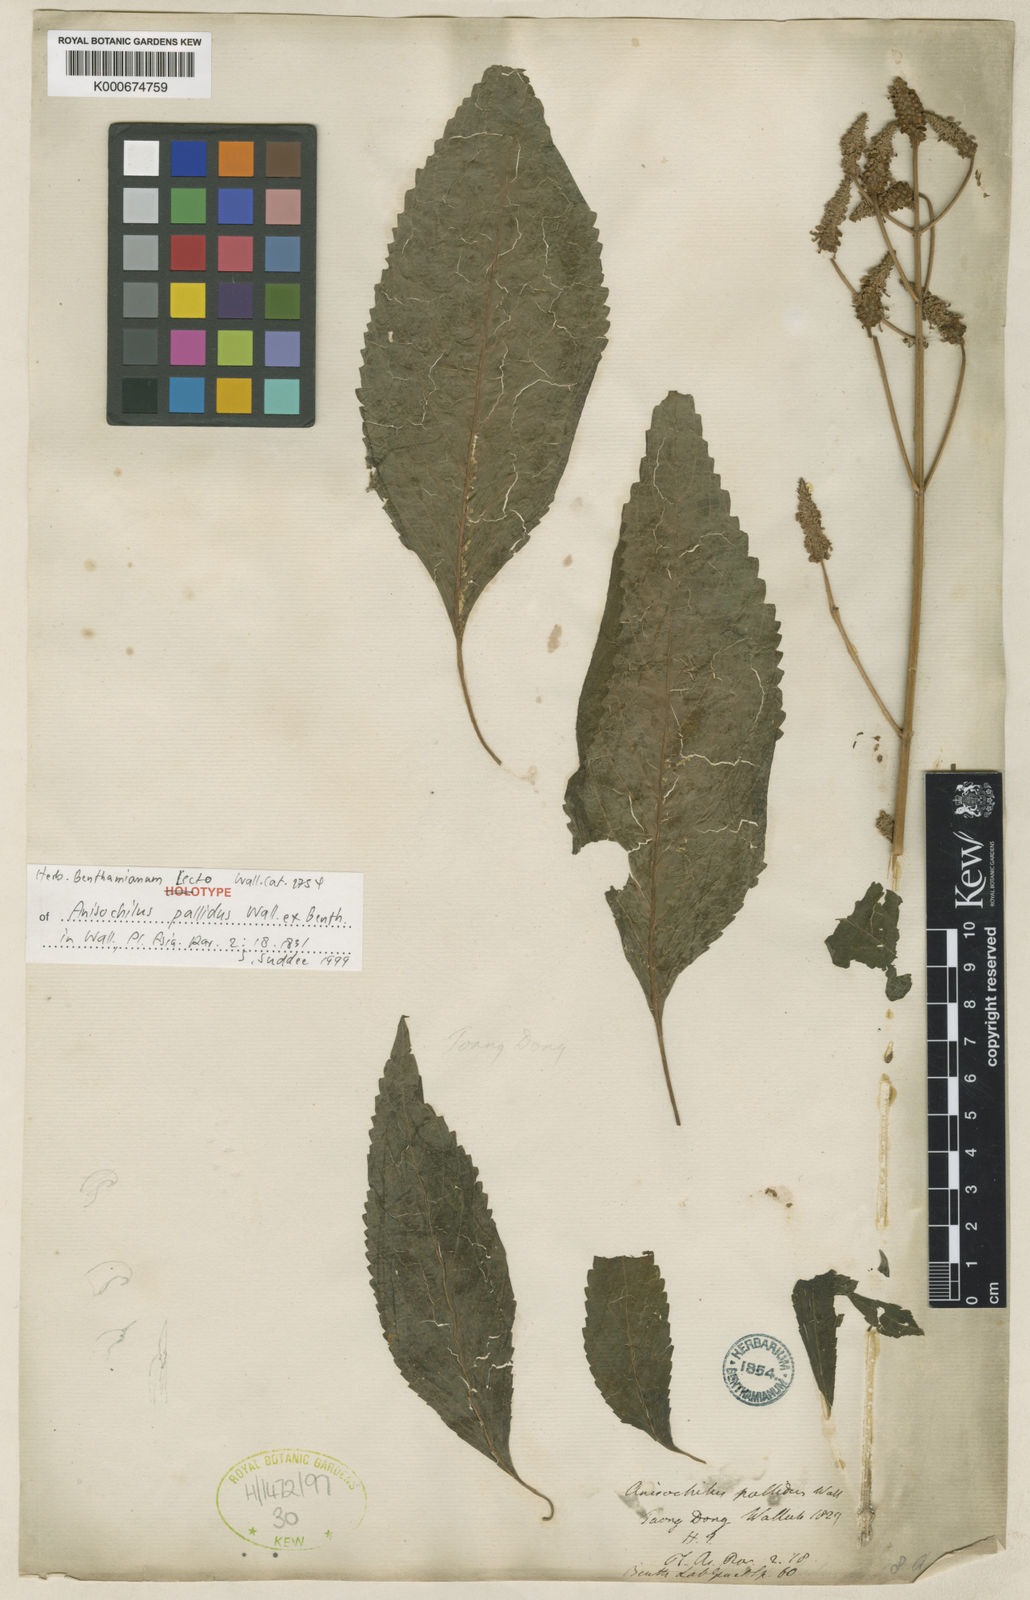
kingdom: Plantae
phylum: Tracheophyta
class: Magnoliopsida
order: Lamiales
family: Lamiaceae
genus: Coleus
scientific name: Coleus pallidus
